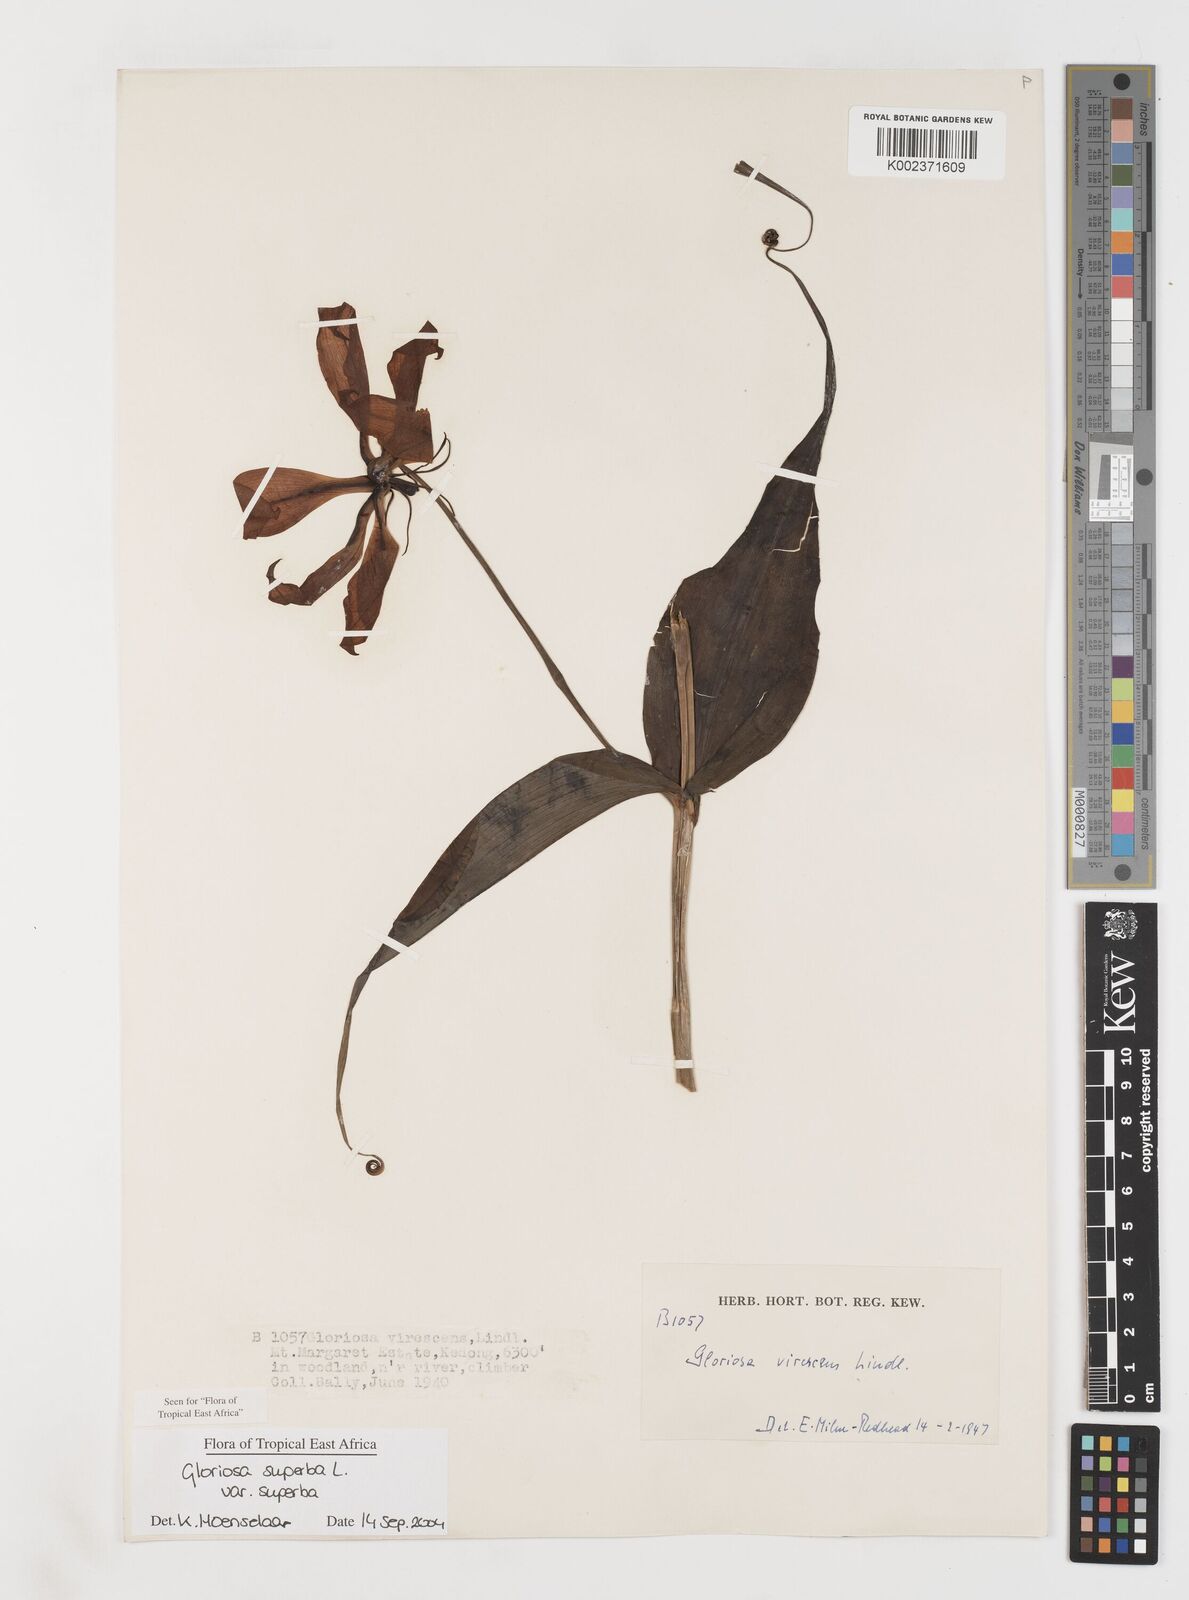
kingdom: Plantae
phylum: Tracheophyta
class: Liliopsida
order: Liliales
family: Colchicaceae
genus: Gloriosa
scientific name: Gloriosa simplex
